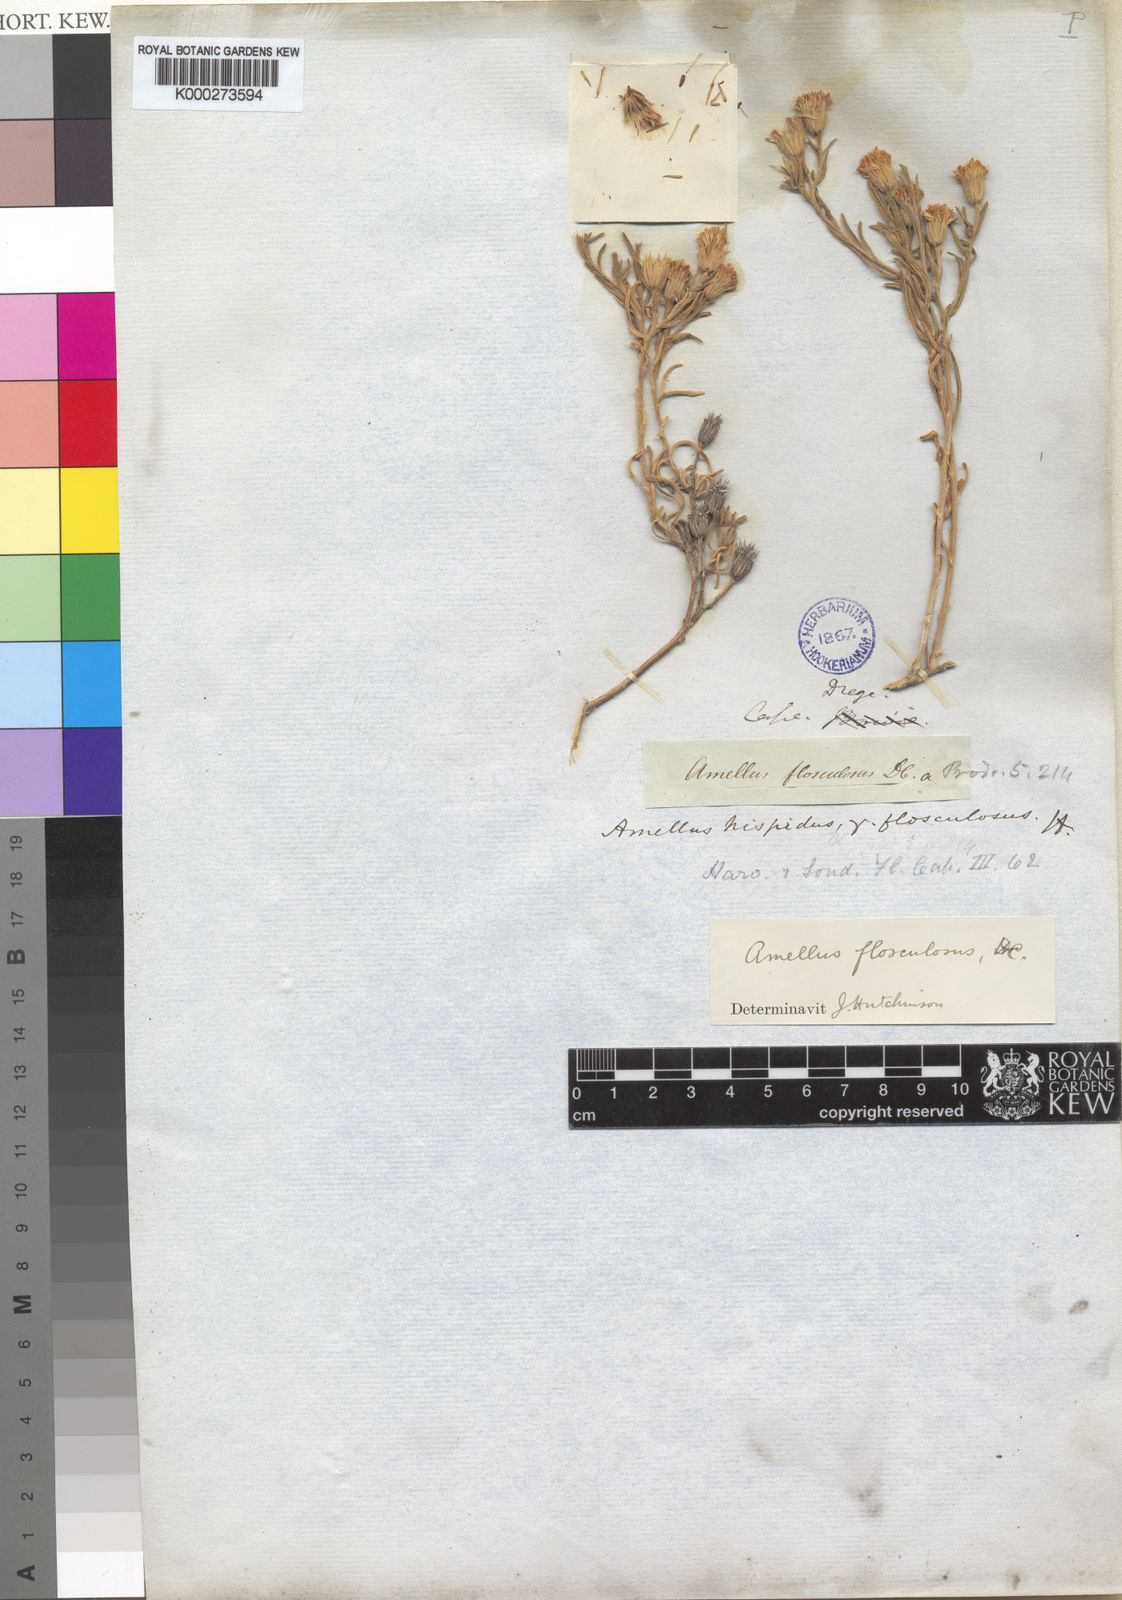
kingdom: Plantae
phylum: Tracheophyta
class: Magnoliopsida
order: Asterales
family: Asteraceae
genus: Amellus
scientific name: Amellus flosculosus
